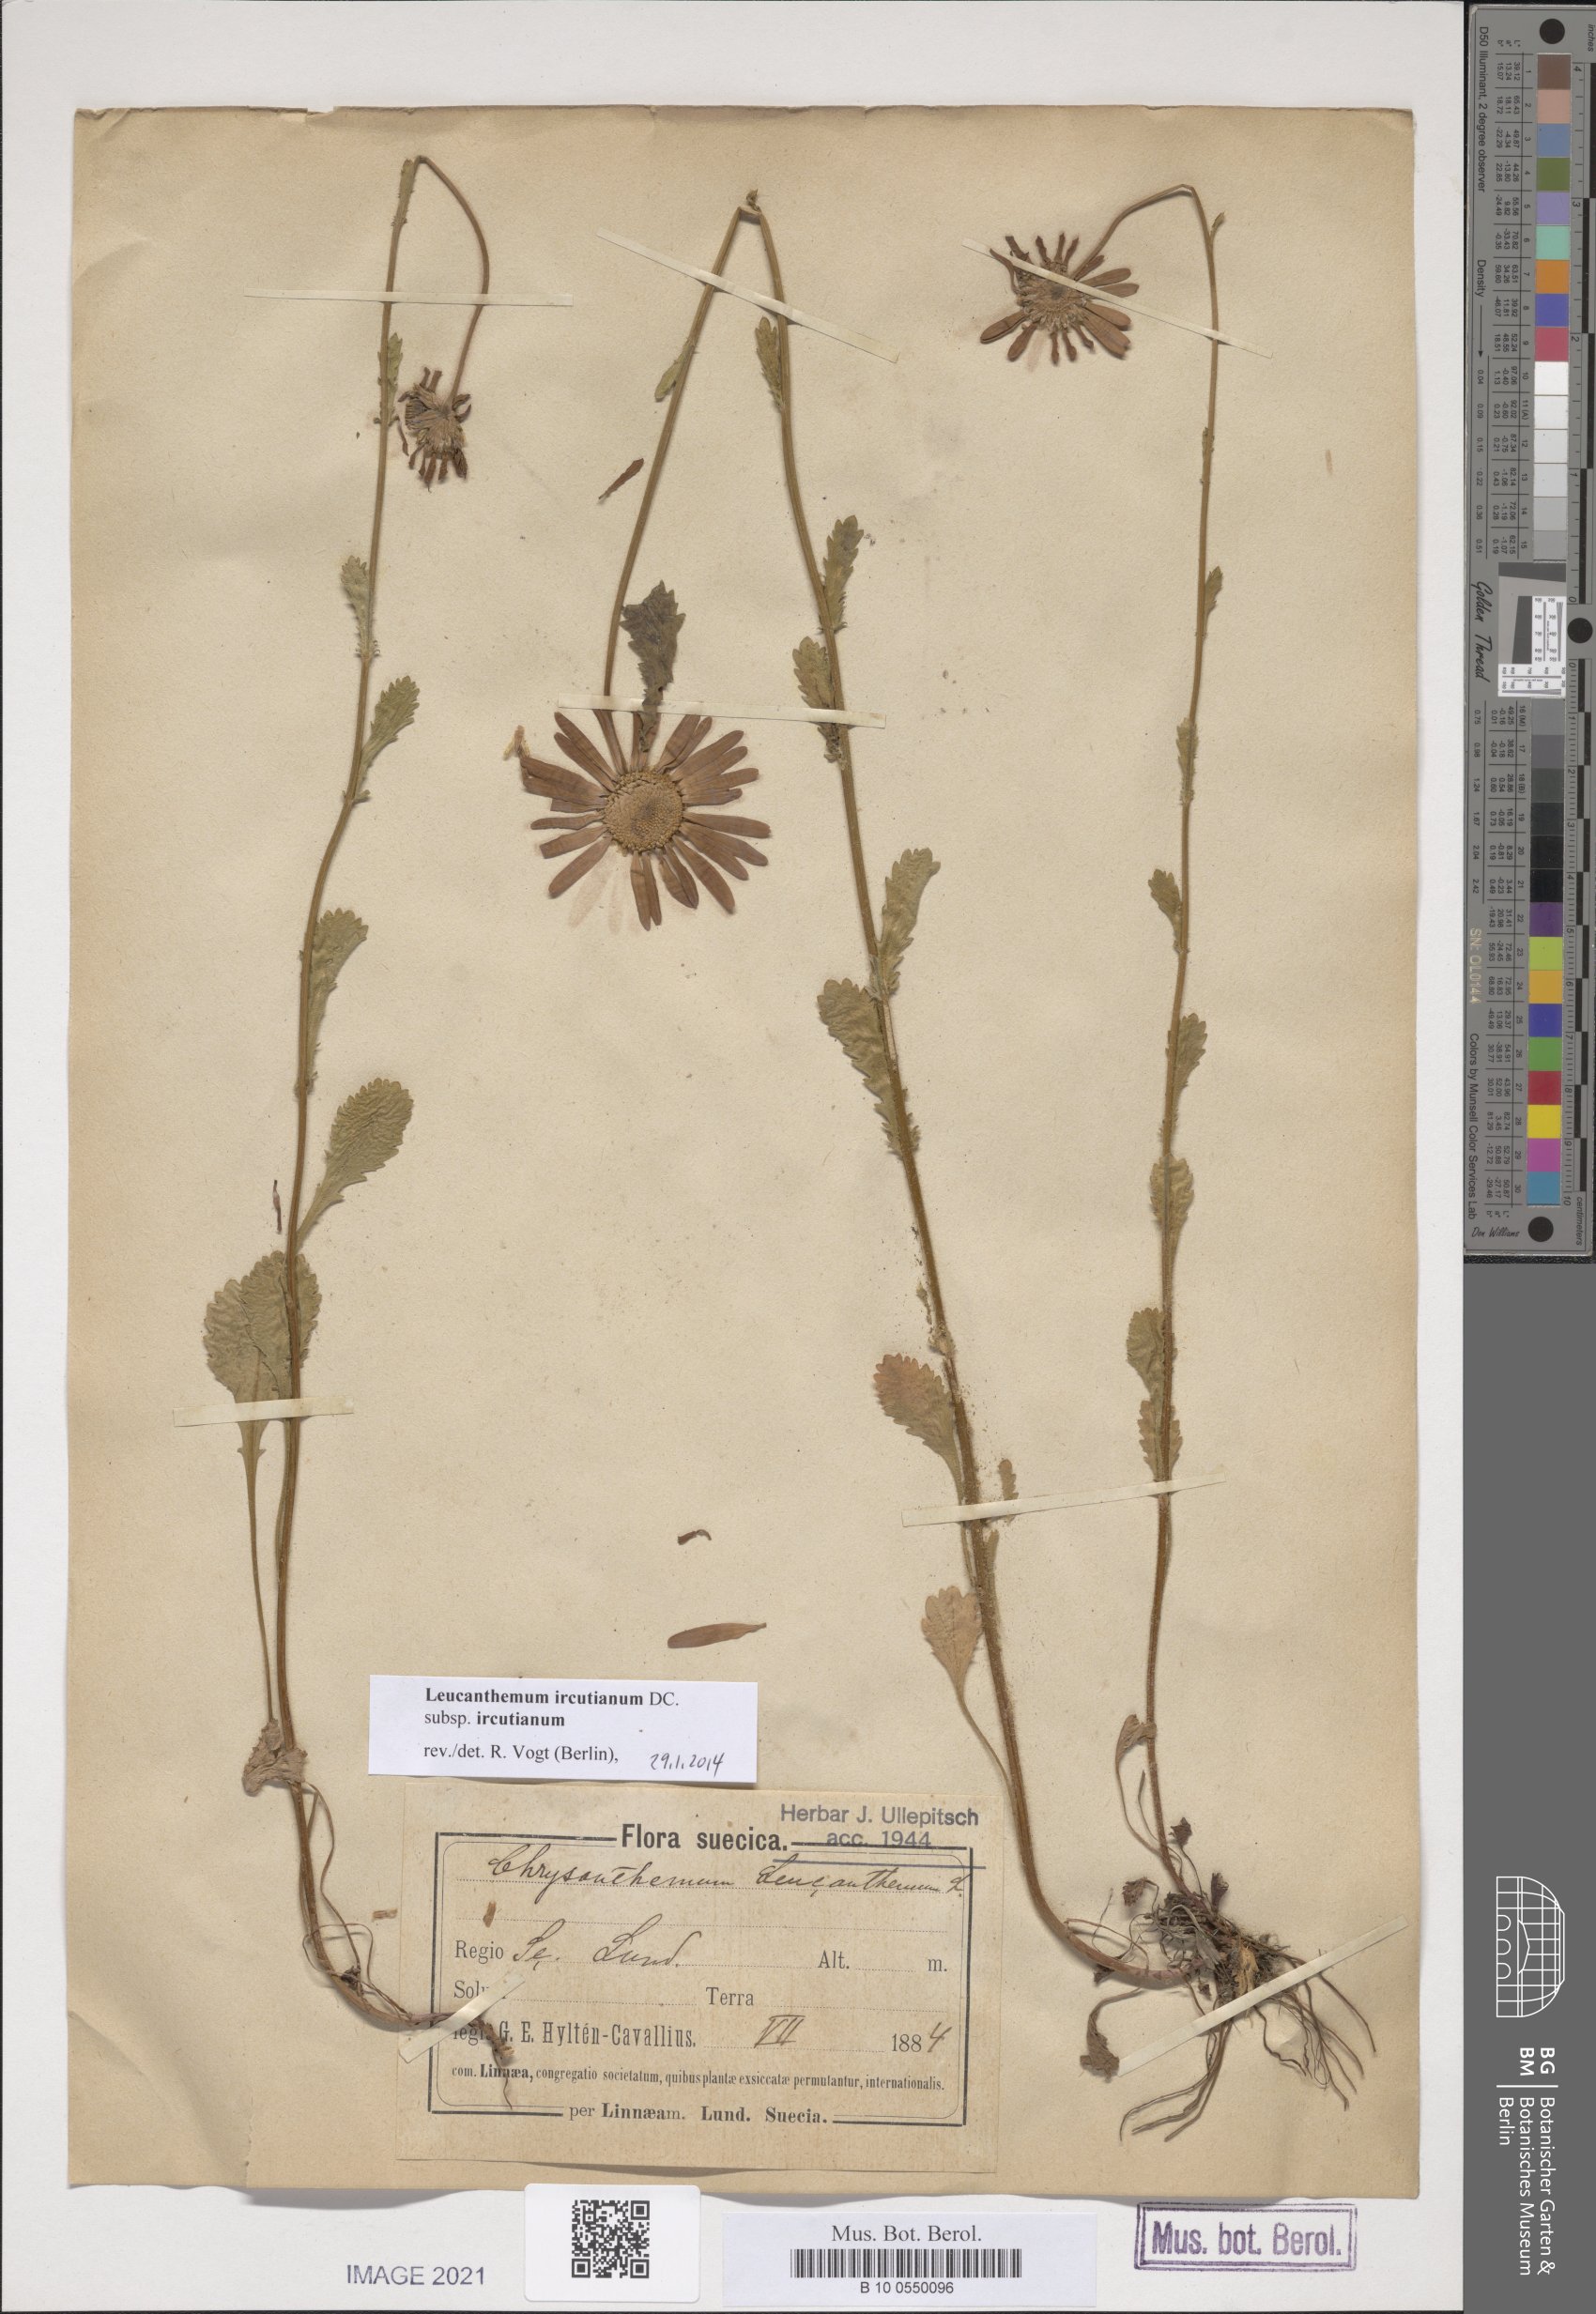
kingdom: Plantae
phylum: Tracheophyta
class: Magnoliopsida
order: Asterales
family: Asteraceae
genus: Leucanthemum
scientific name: Leucanthemum ircutianum
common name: Daisy
